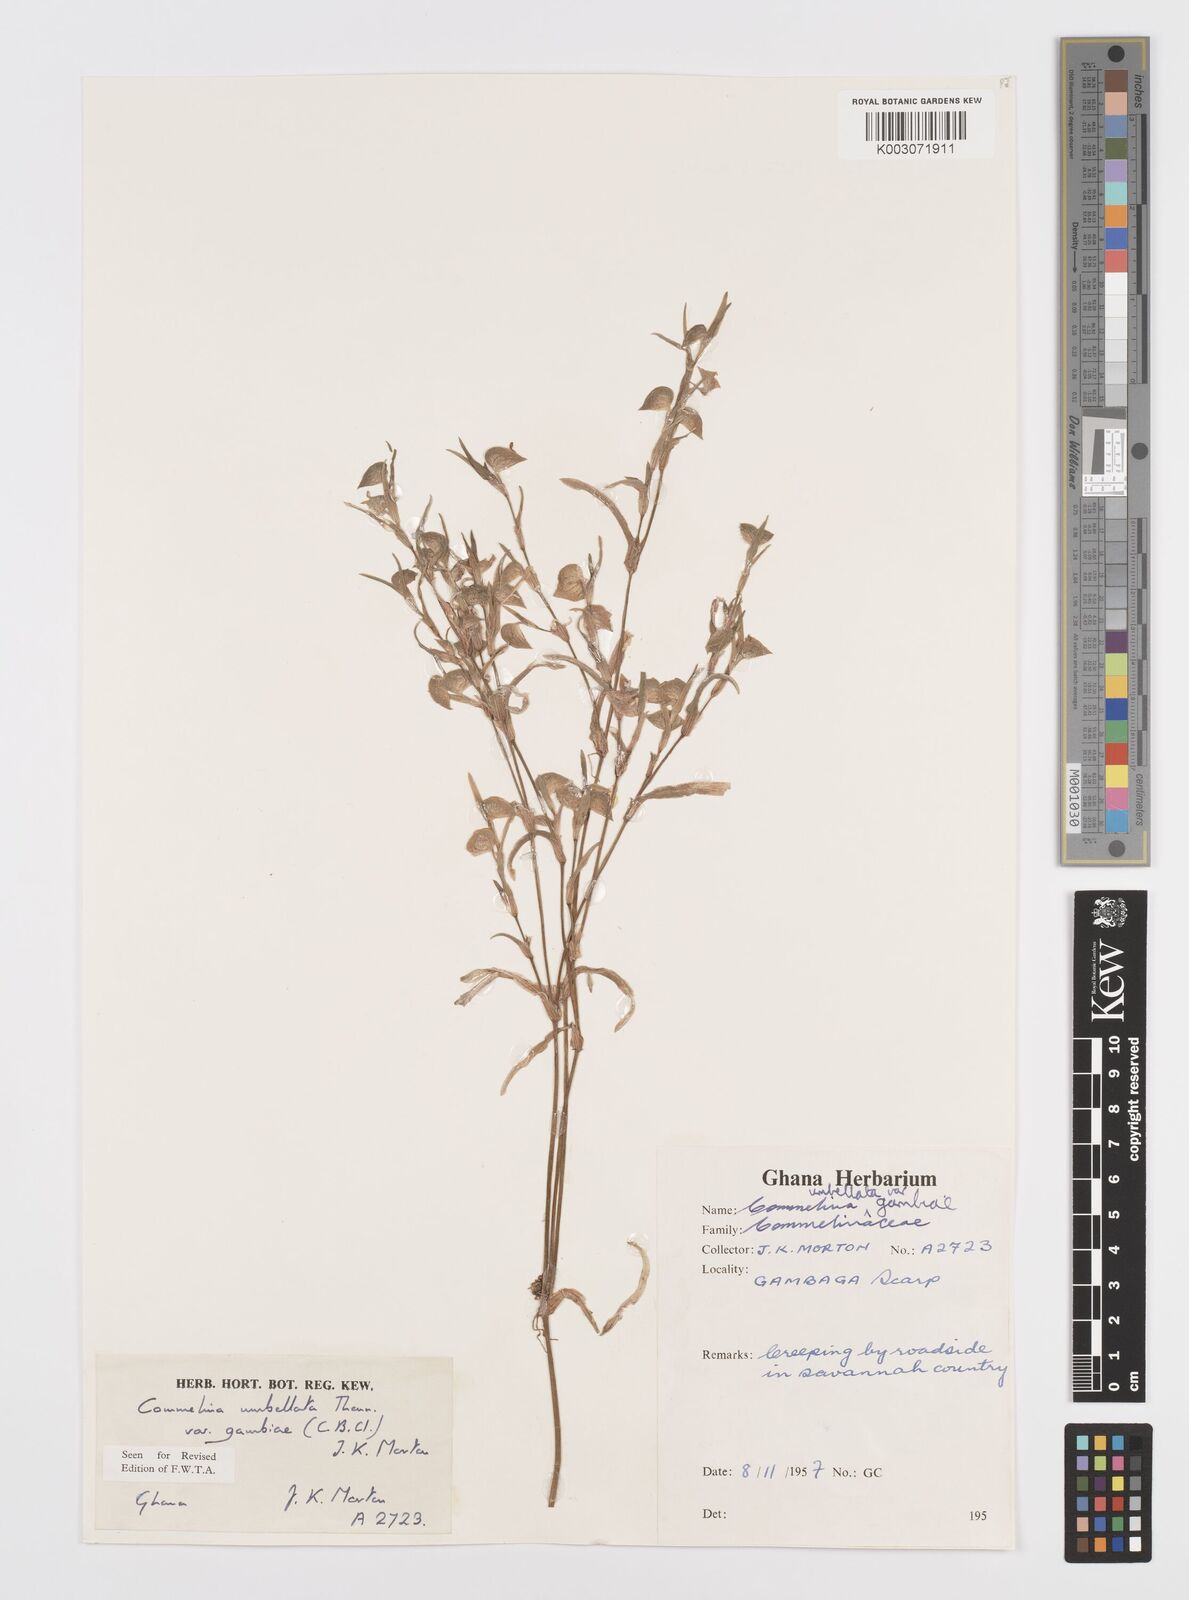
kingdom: Plantae
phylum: Tracheophyta
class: Liliopsida
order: Commelinales
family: Commelinaceae
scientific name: Commelinaceae
